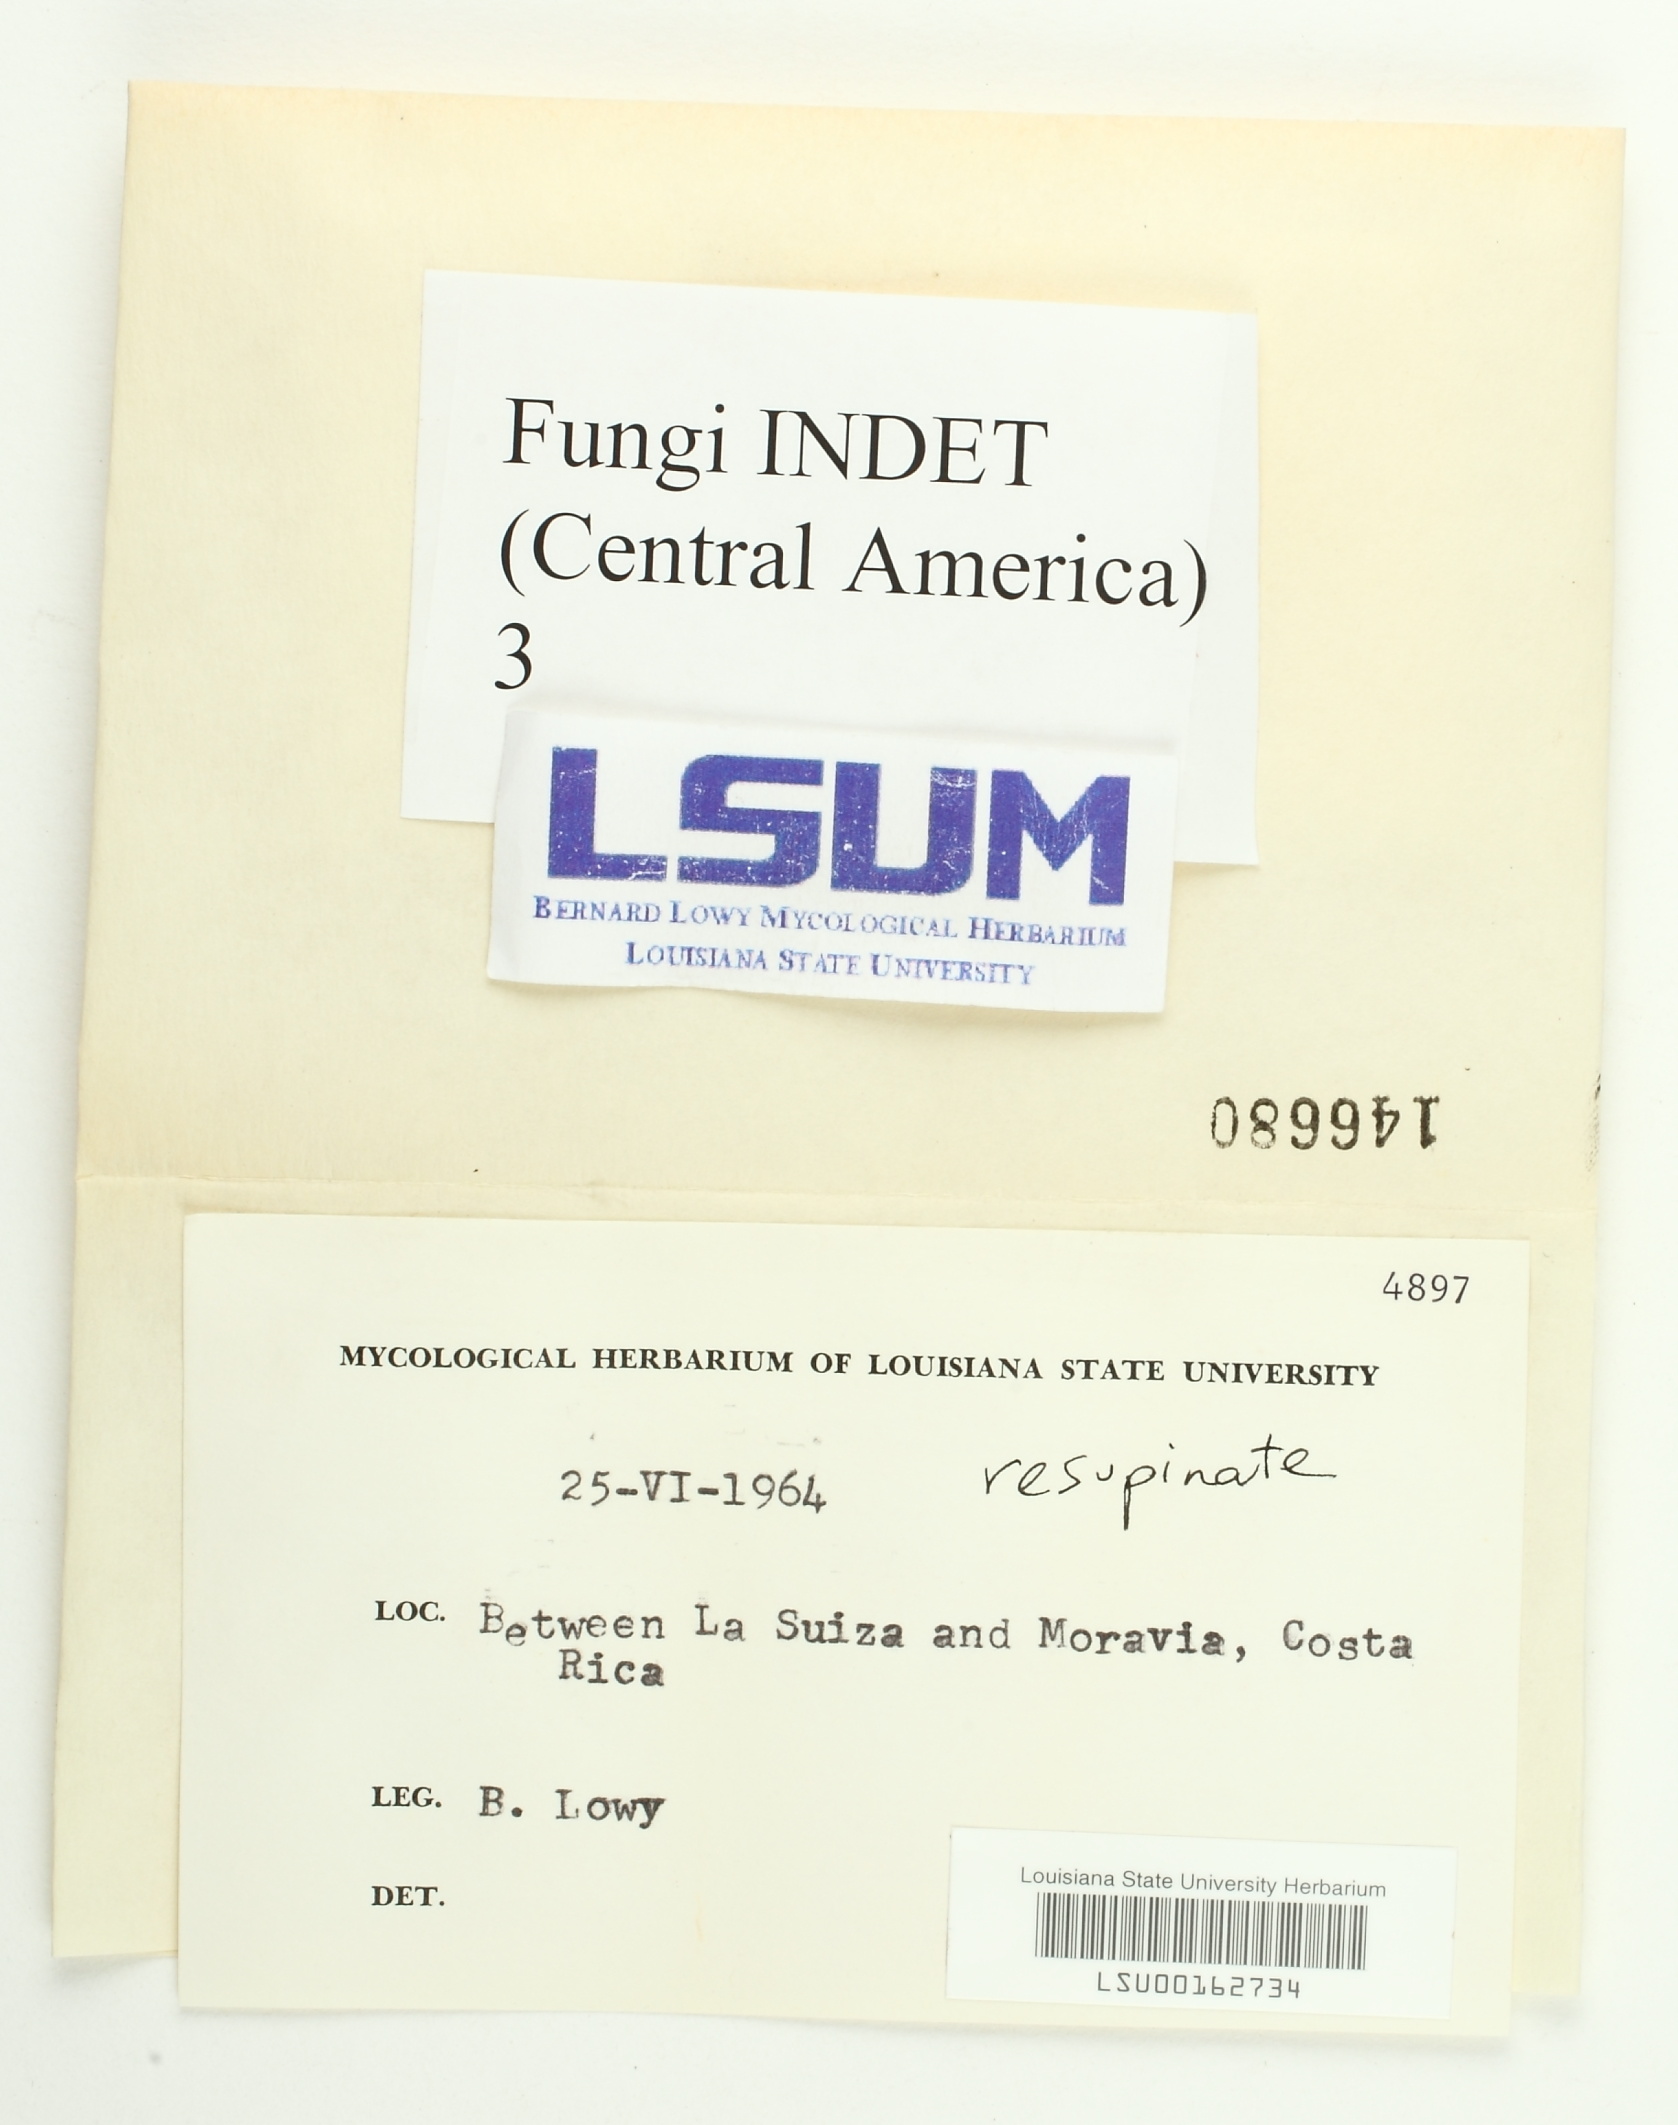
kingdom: Fungi
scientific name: Fungi
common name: Fungi
